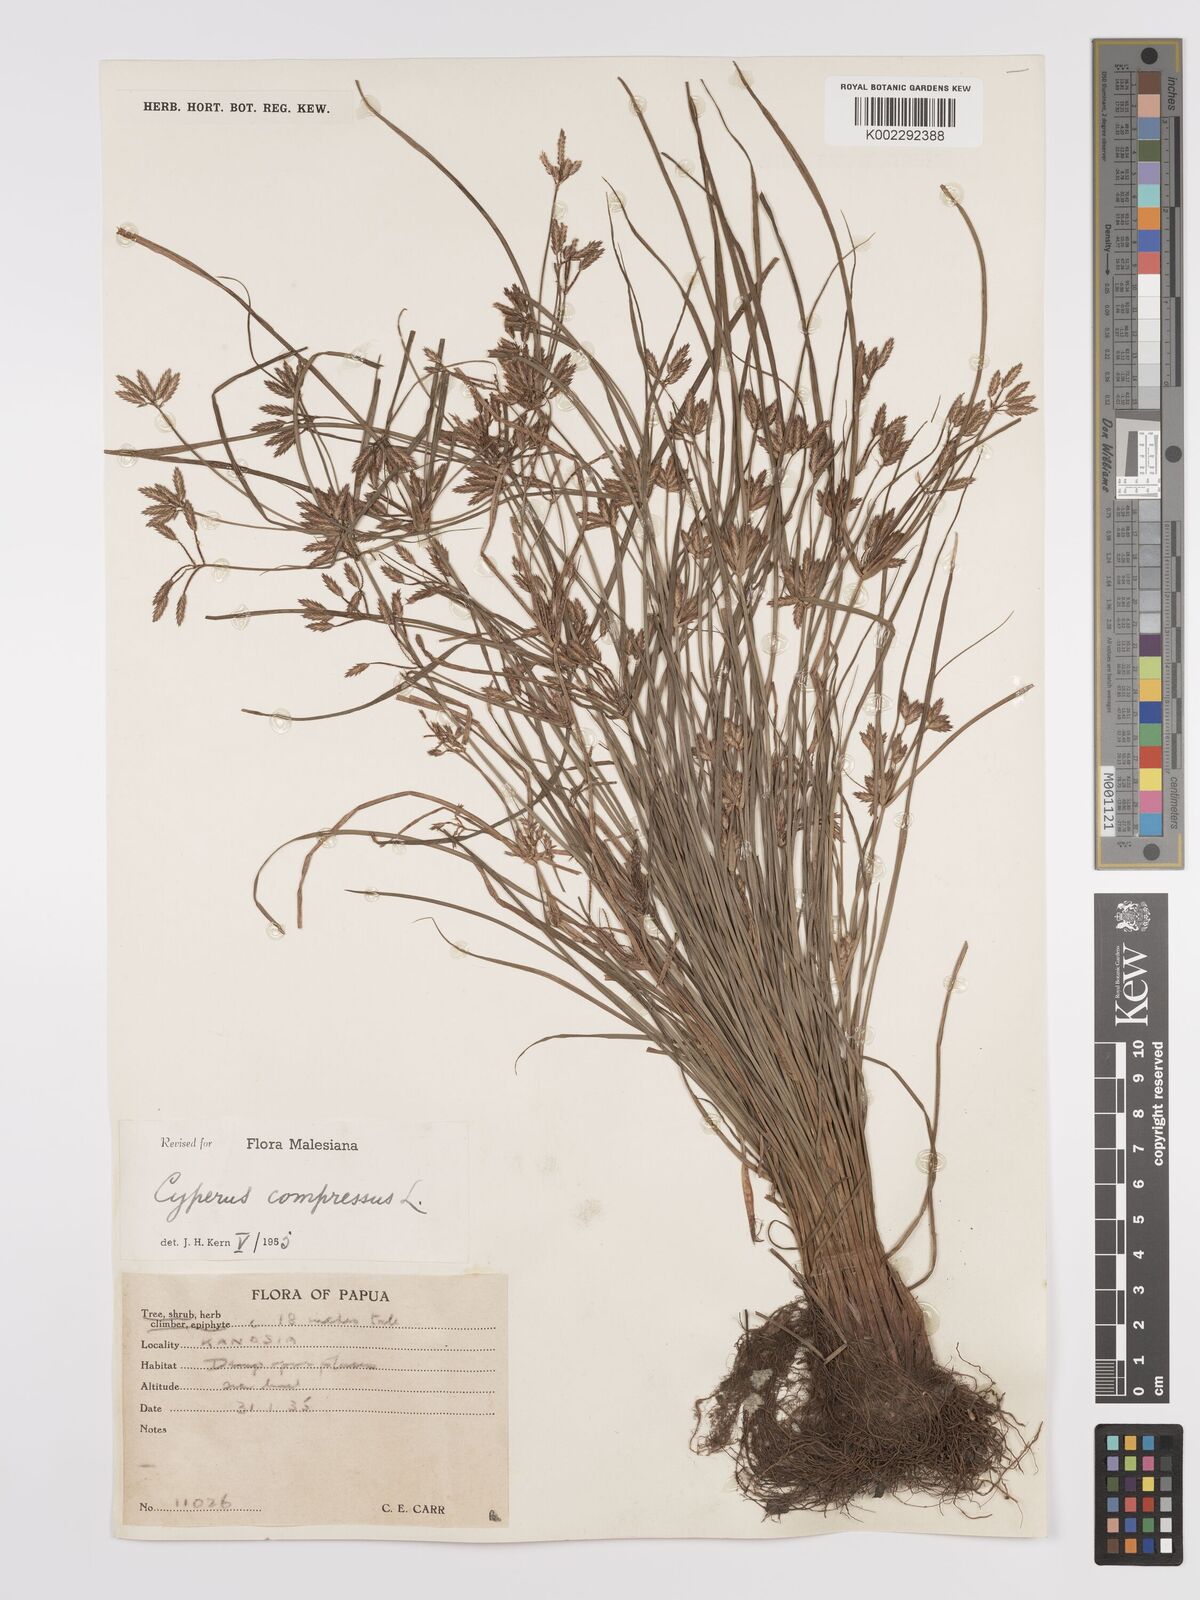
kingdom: Plantae
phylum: Tracheophyta
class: Liliopsida
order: Poales
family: Cyperaceae
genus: Cyperus
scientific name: Cyperus compressus
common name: Poorland flatsedge
